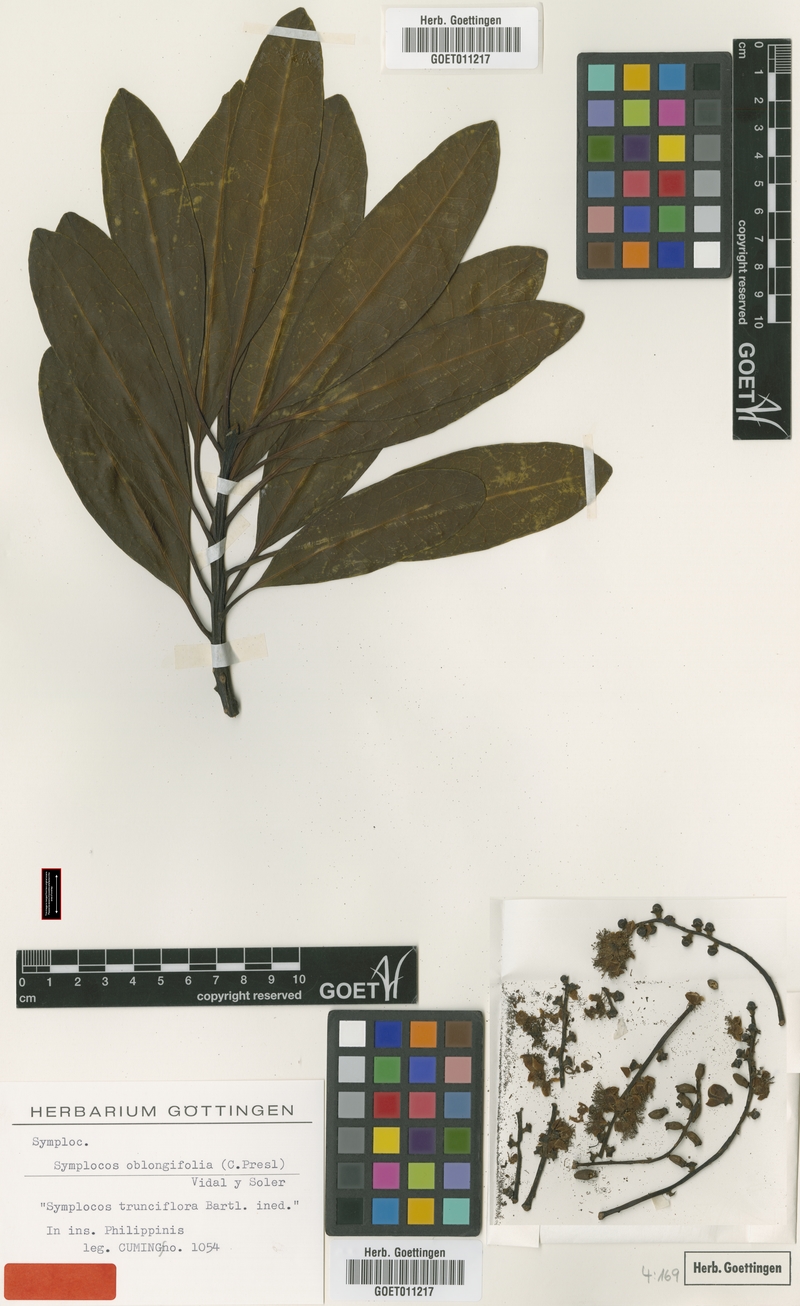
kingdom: Plantae
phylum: Tracheophyta
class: Magnoliopsida
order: Ericales
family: Symplocaceae
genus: Symplocos
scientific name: Symplocos polyandra
